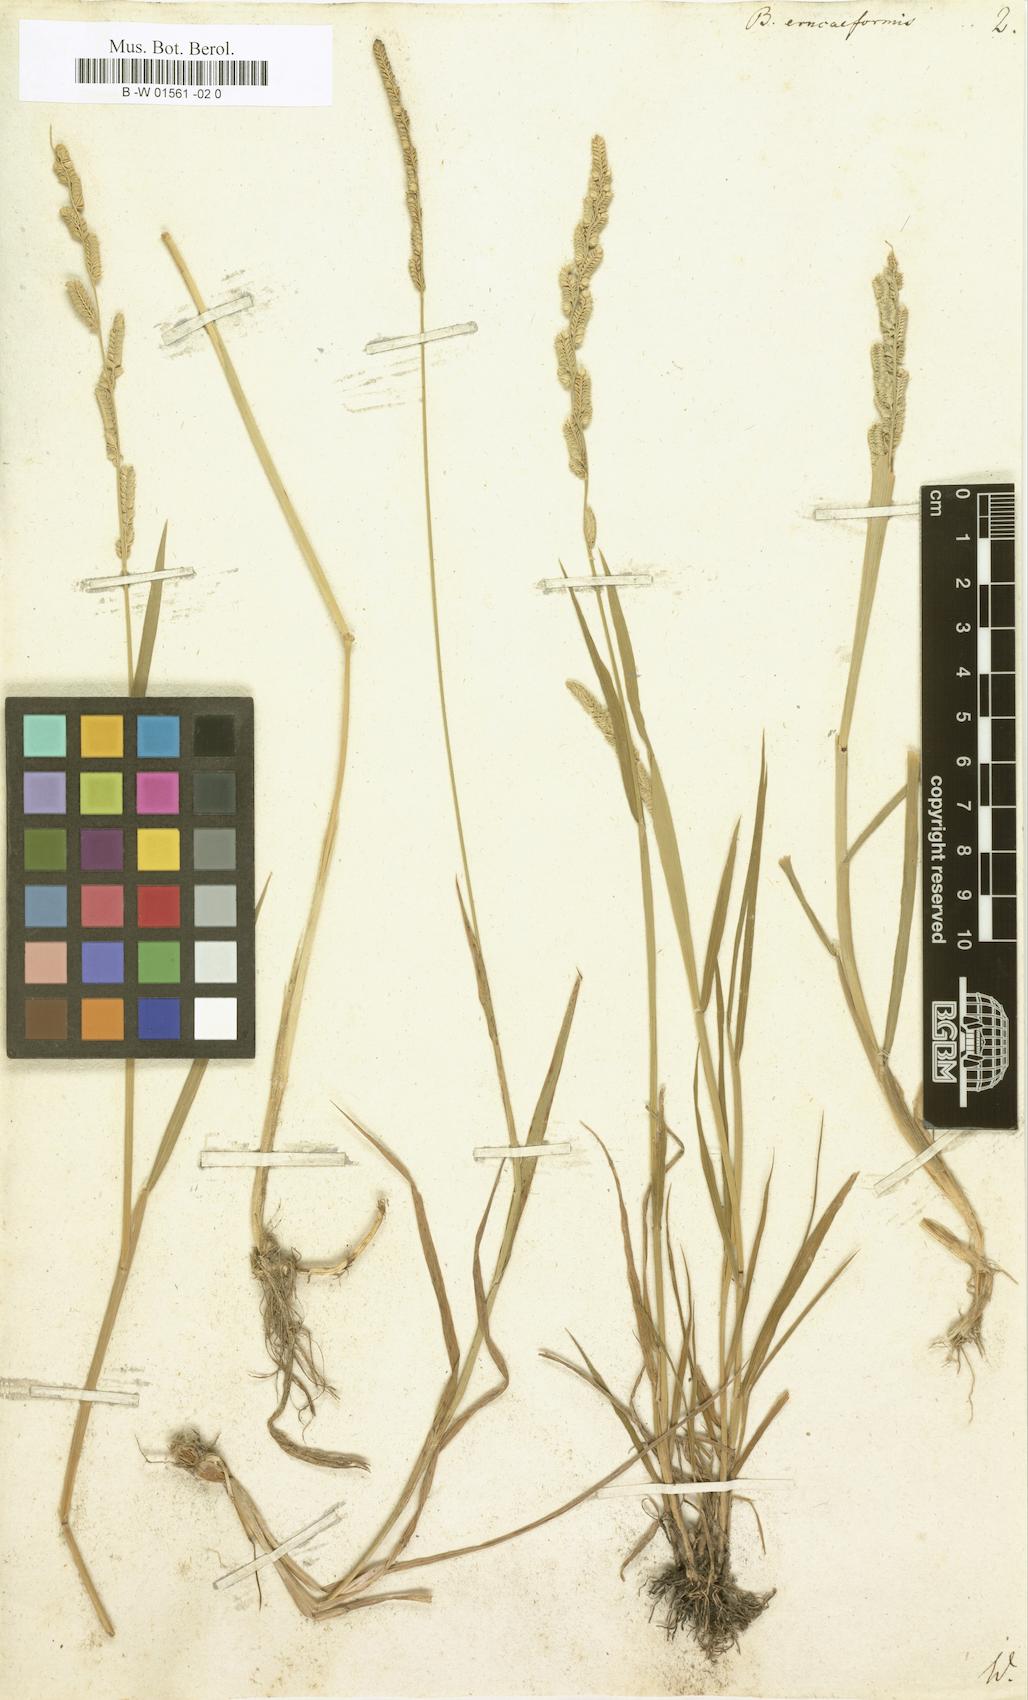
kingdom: Plantae
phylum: Tracheophyta
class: Liliopsida
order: Poales
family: Poaceae
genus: Beckmannia
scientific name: Beckmannia eruciformis
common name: European slough-grass
